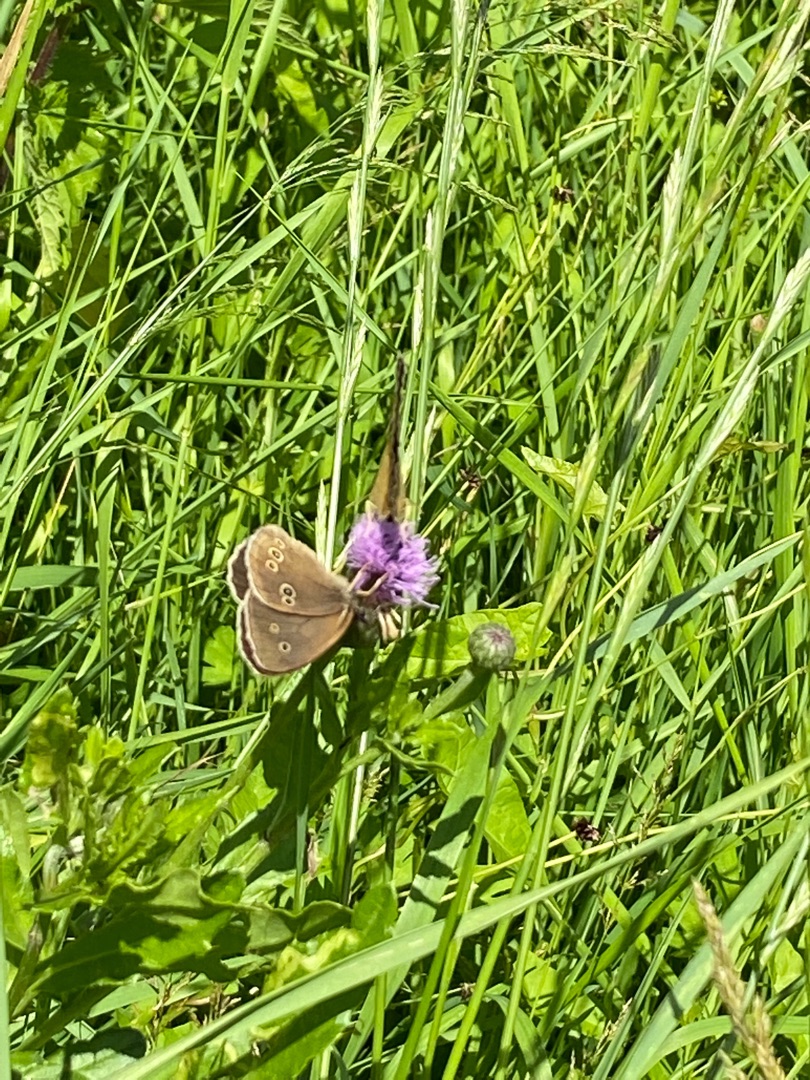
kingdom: Animalia
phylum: Arthropoda
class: Insecta
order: Lepidoptera
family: Nymphalidae
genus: Aphantopus
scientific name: Aphantopus hyperantus
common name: Engrandøje
